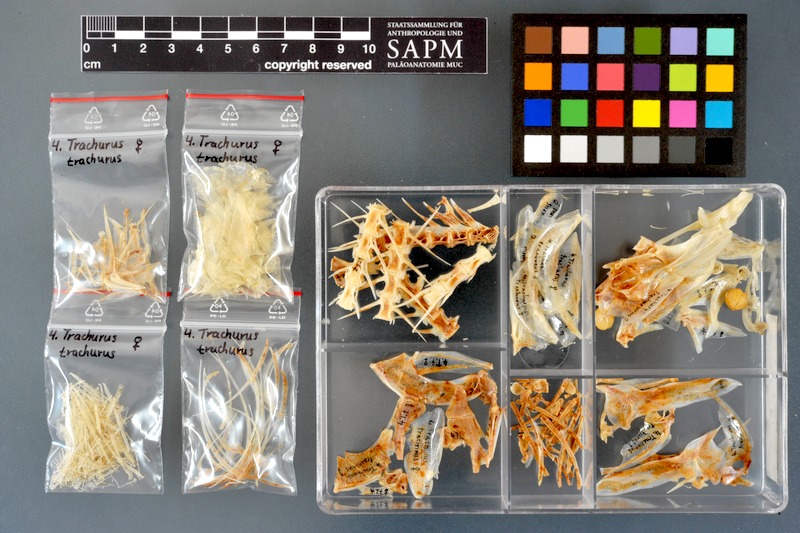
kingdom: Animalia
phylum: Chordata
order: Perciformes
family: Carangidae
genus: Trachurus
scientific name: Trachurus trachurus
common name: Horse mackerel
